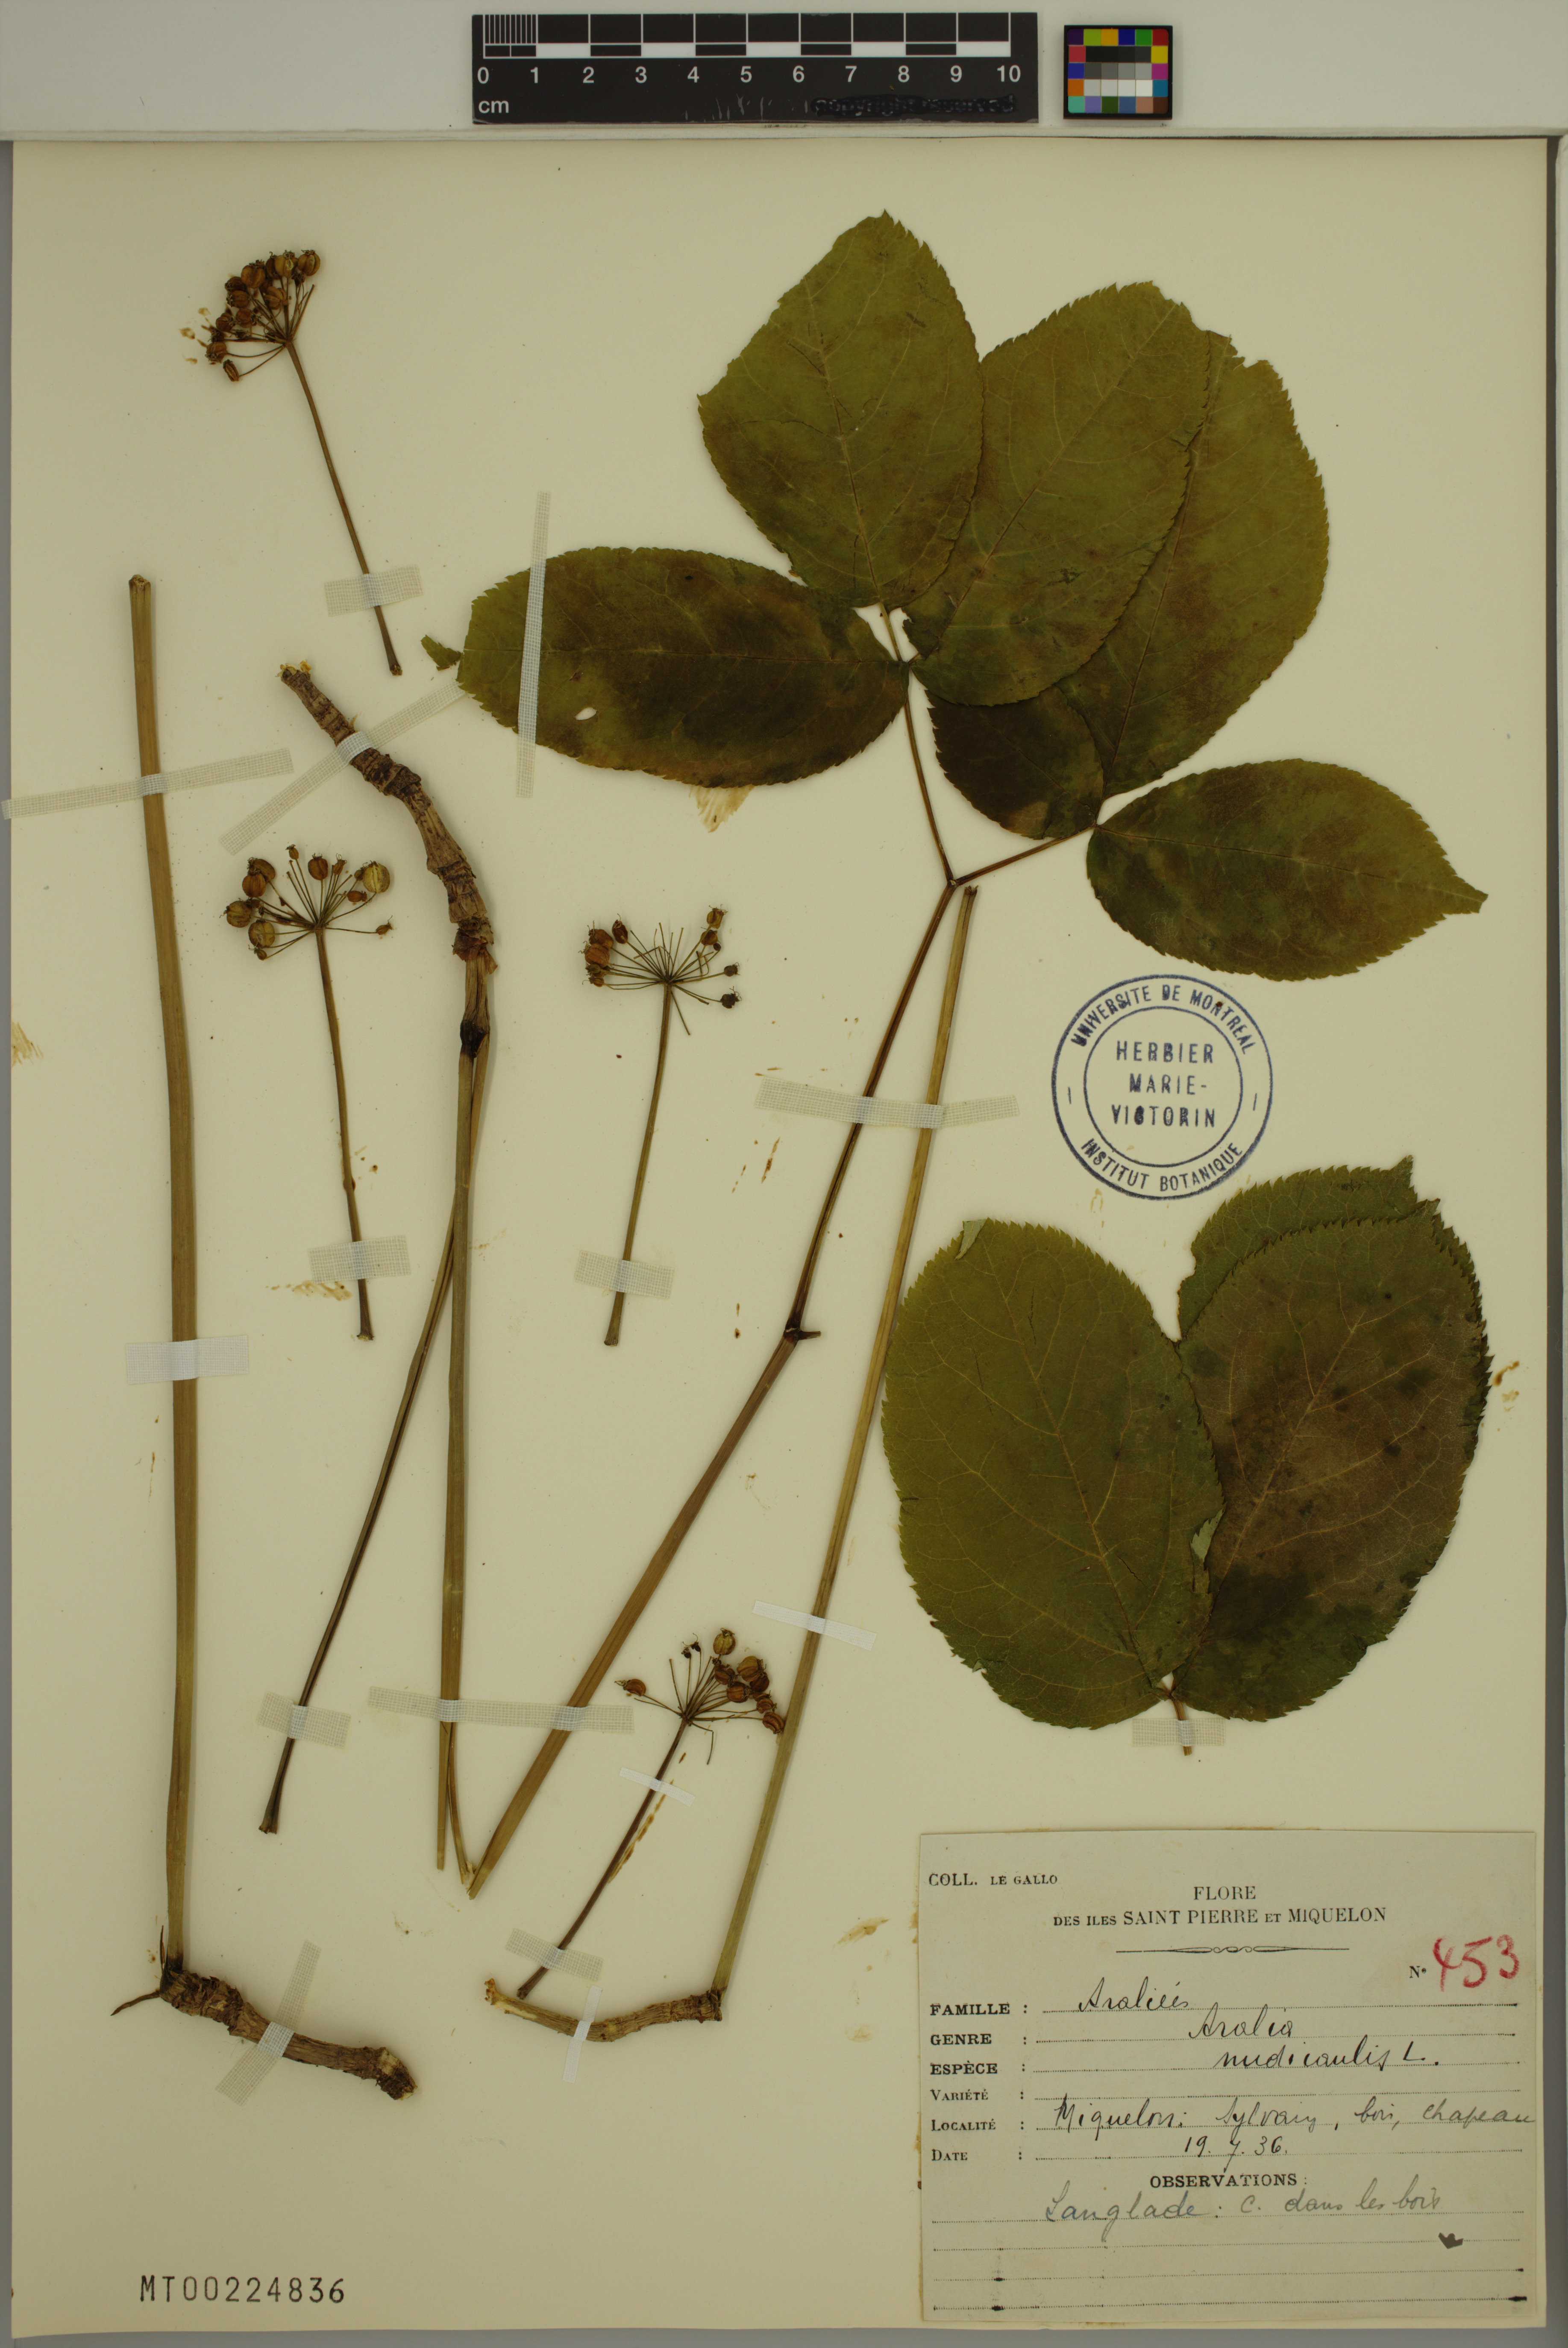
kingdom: Plantae
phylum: Tracheophyta
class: Magnoliopsida
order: Apiales
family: Araliaceae
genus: Aralia
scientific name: Aralia nudicaulis
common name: Wild sarsaparilla
